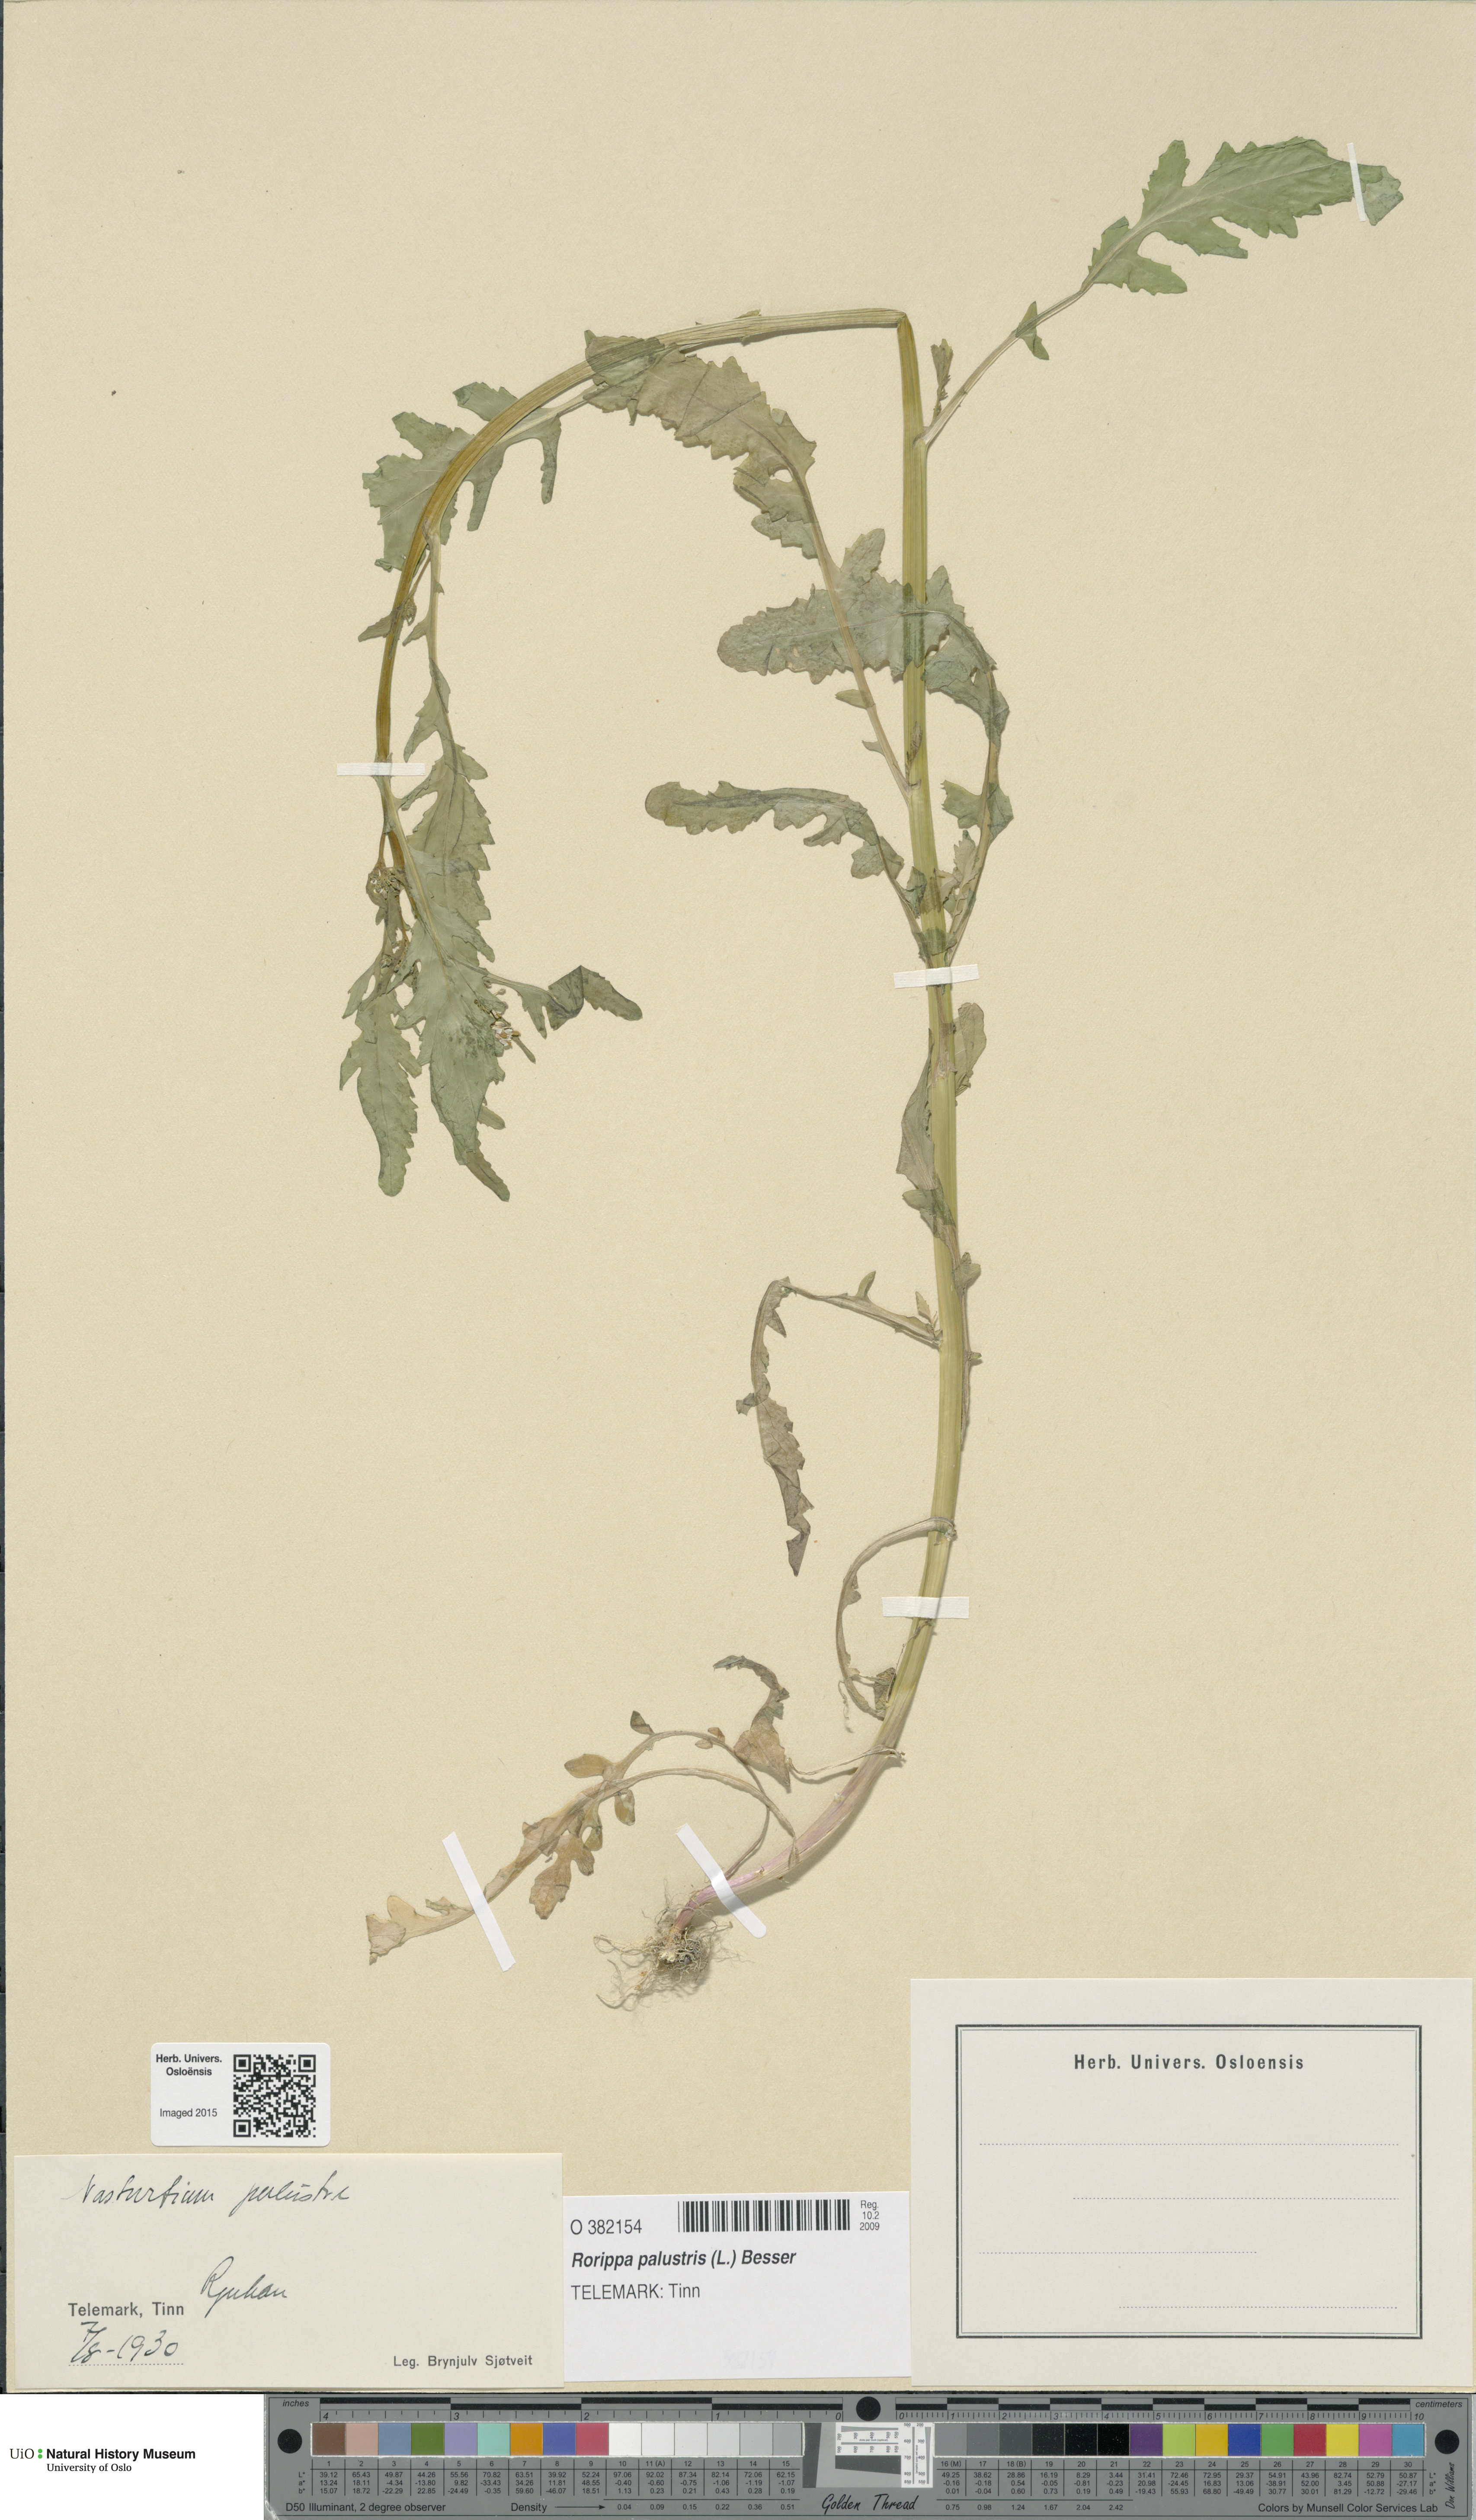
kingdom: Plantae
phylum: Tracheophyta
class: Magnoliopsida
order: Brassicales
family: Brassicaceae
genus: Rorippa
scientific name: Rorippa palustris
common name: Marsh yellow-cress
